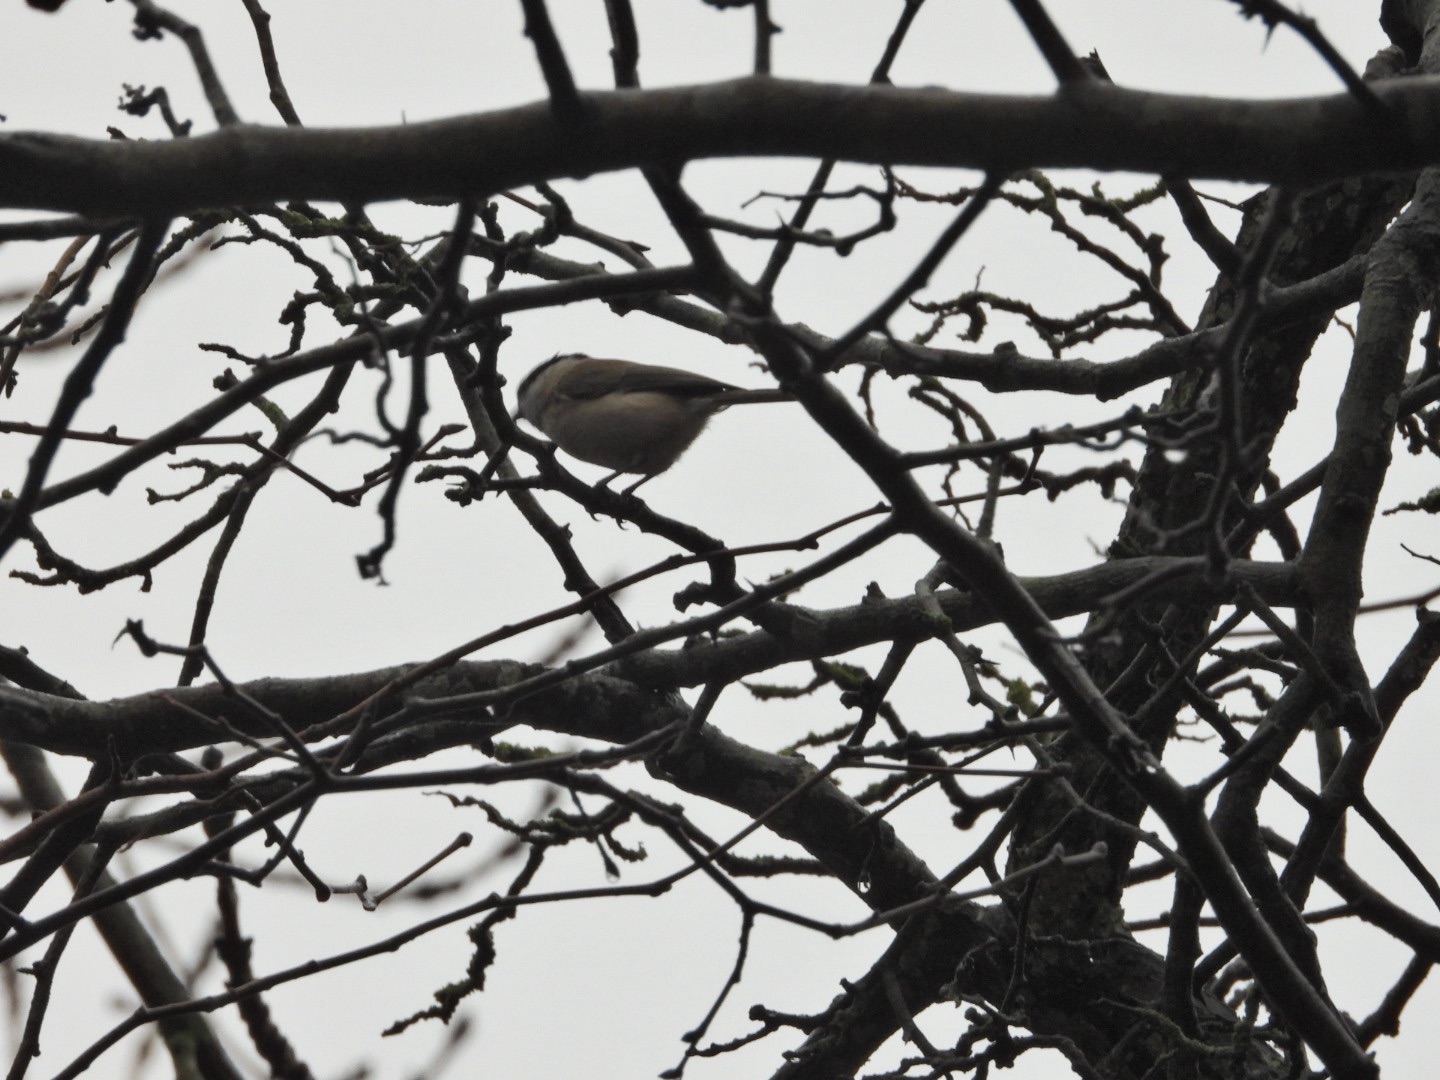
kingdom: Animalia
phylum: Chordata
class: Aves
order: Passeriformes
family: Paridae
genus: Poecile
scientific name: Poecile palustris
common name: Sumpmejse
